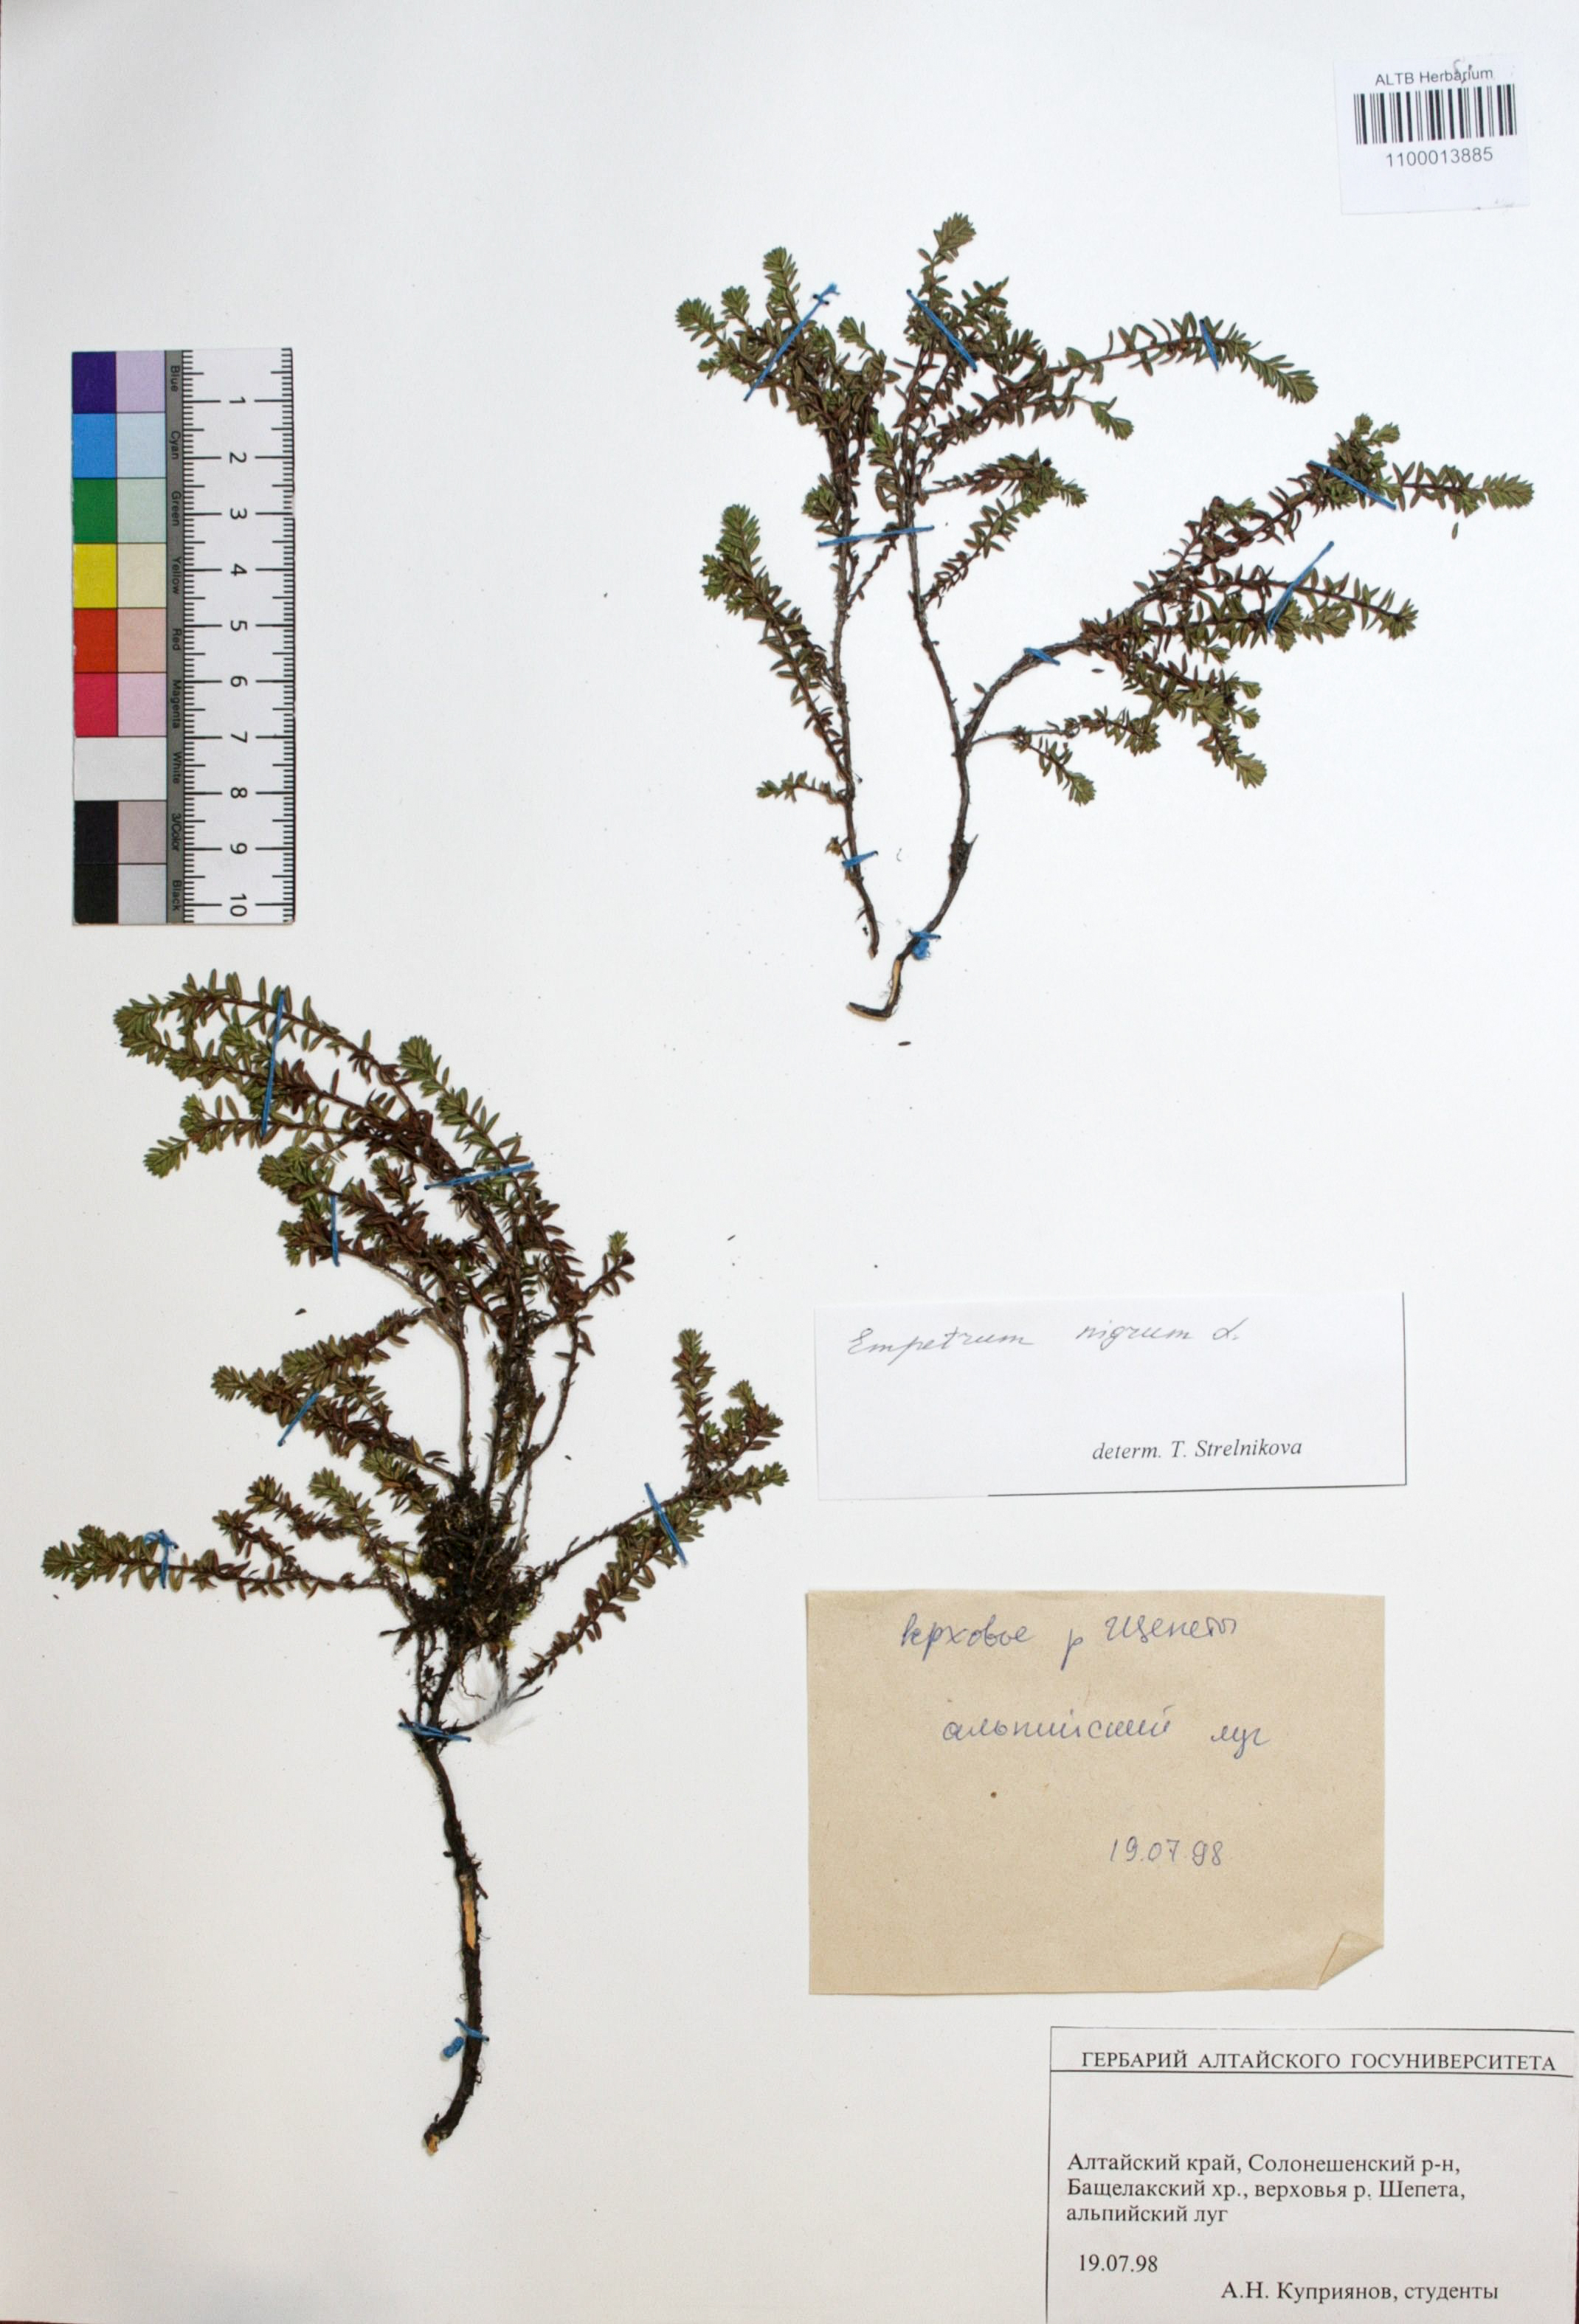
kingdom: Plantae
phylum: Tracheophyta
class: Magnoliopsida
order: Ericales
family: Ericaceae
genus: Empetrum
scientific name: Empetrum nigrum
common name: Black crowberry
